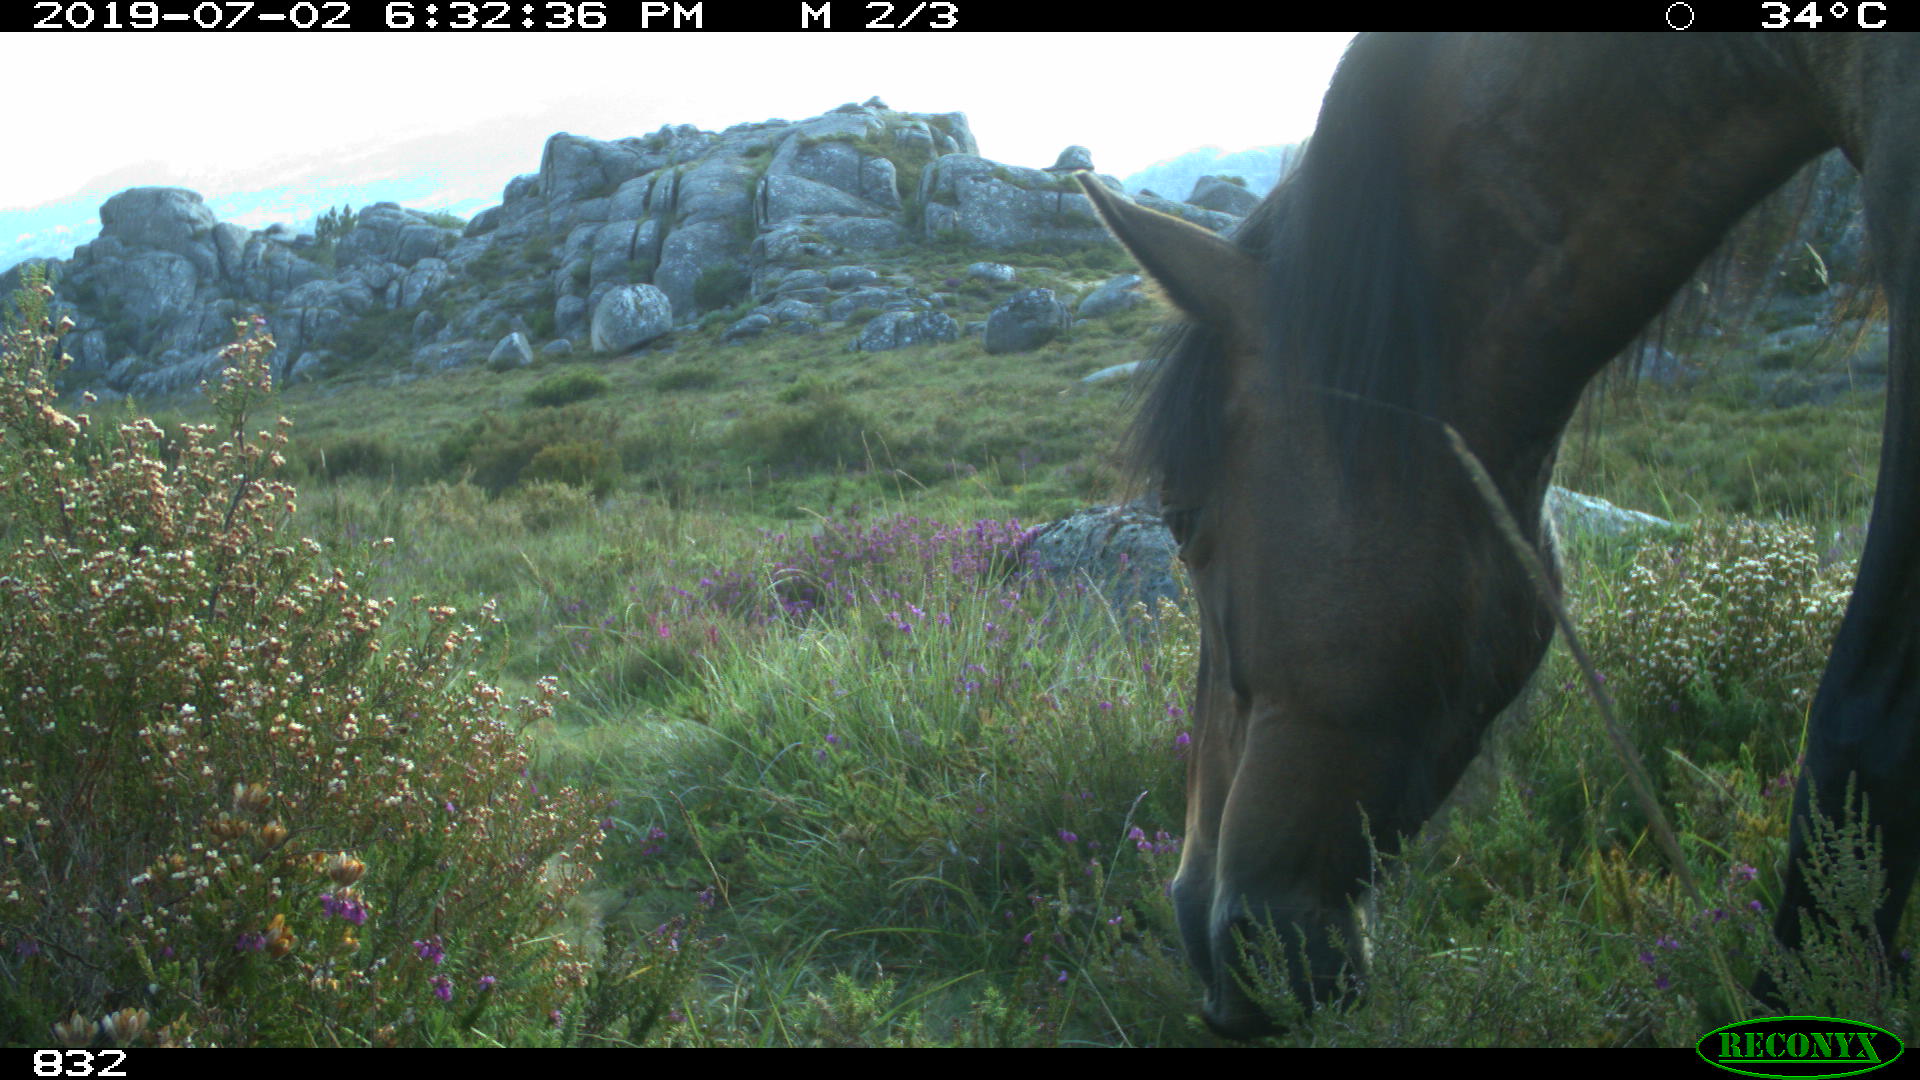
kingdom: Animalia
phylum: Chordata
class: Mammalia
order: Perissodactyla
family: Equidae
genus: Equus
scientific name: Equus caballus
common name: Horse
